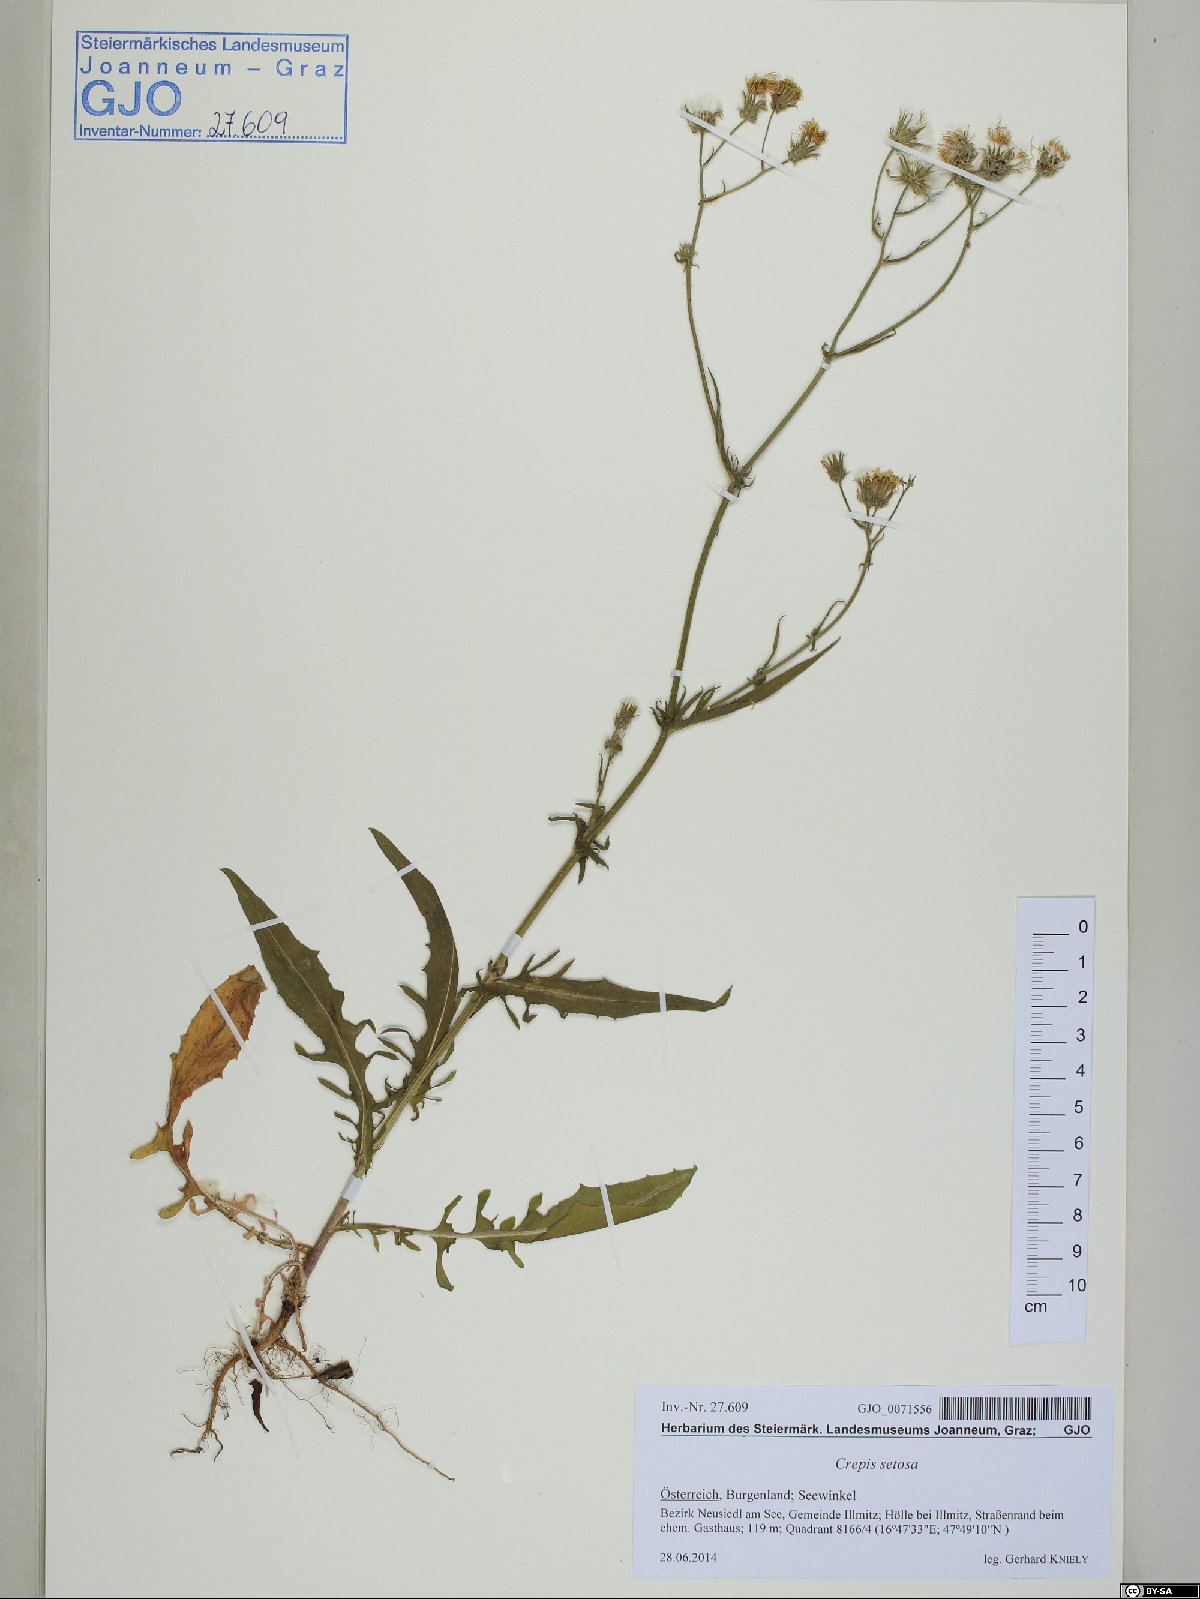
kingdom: Plantae
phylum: Tracheophyta
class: Magnoliopsida
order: Asterales
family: Asteraceae
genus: Crepis
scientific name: Crepis setosa
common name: Bristly hawk's-beard
